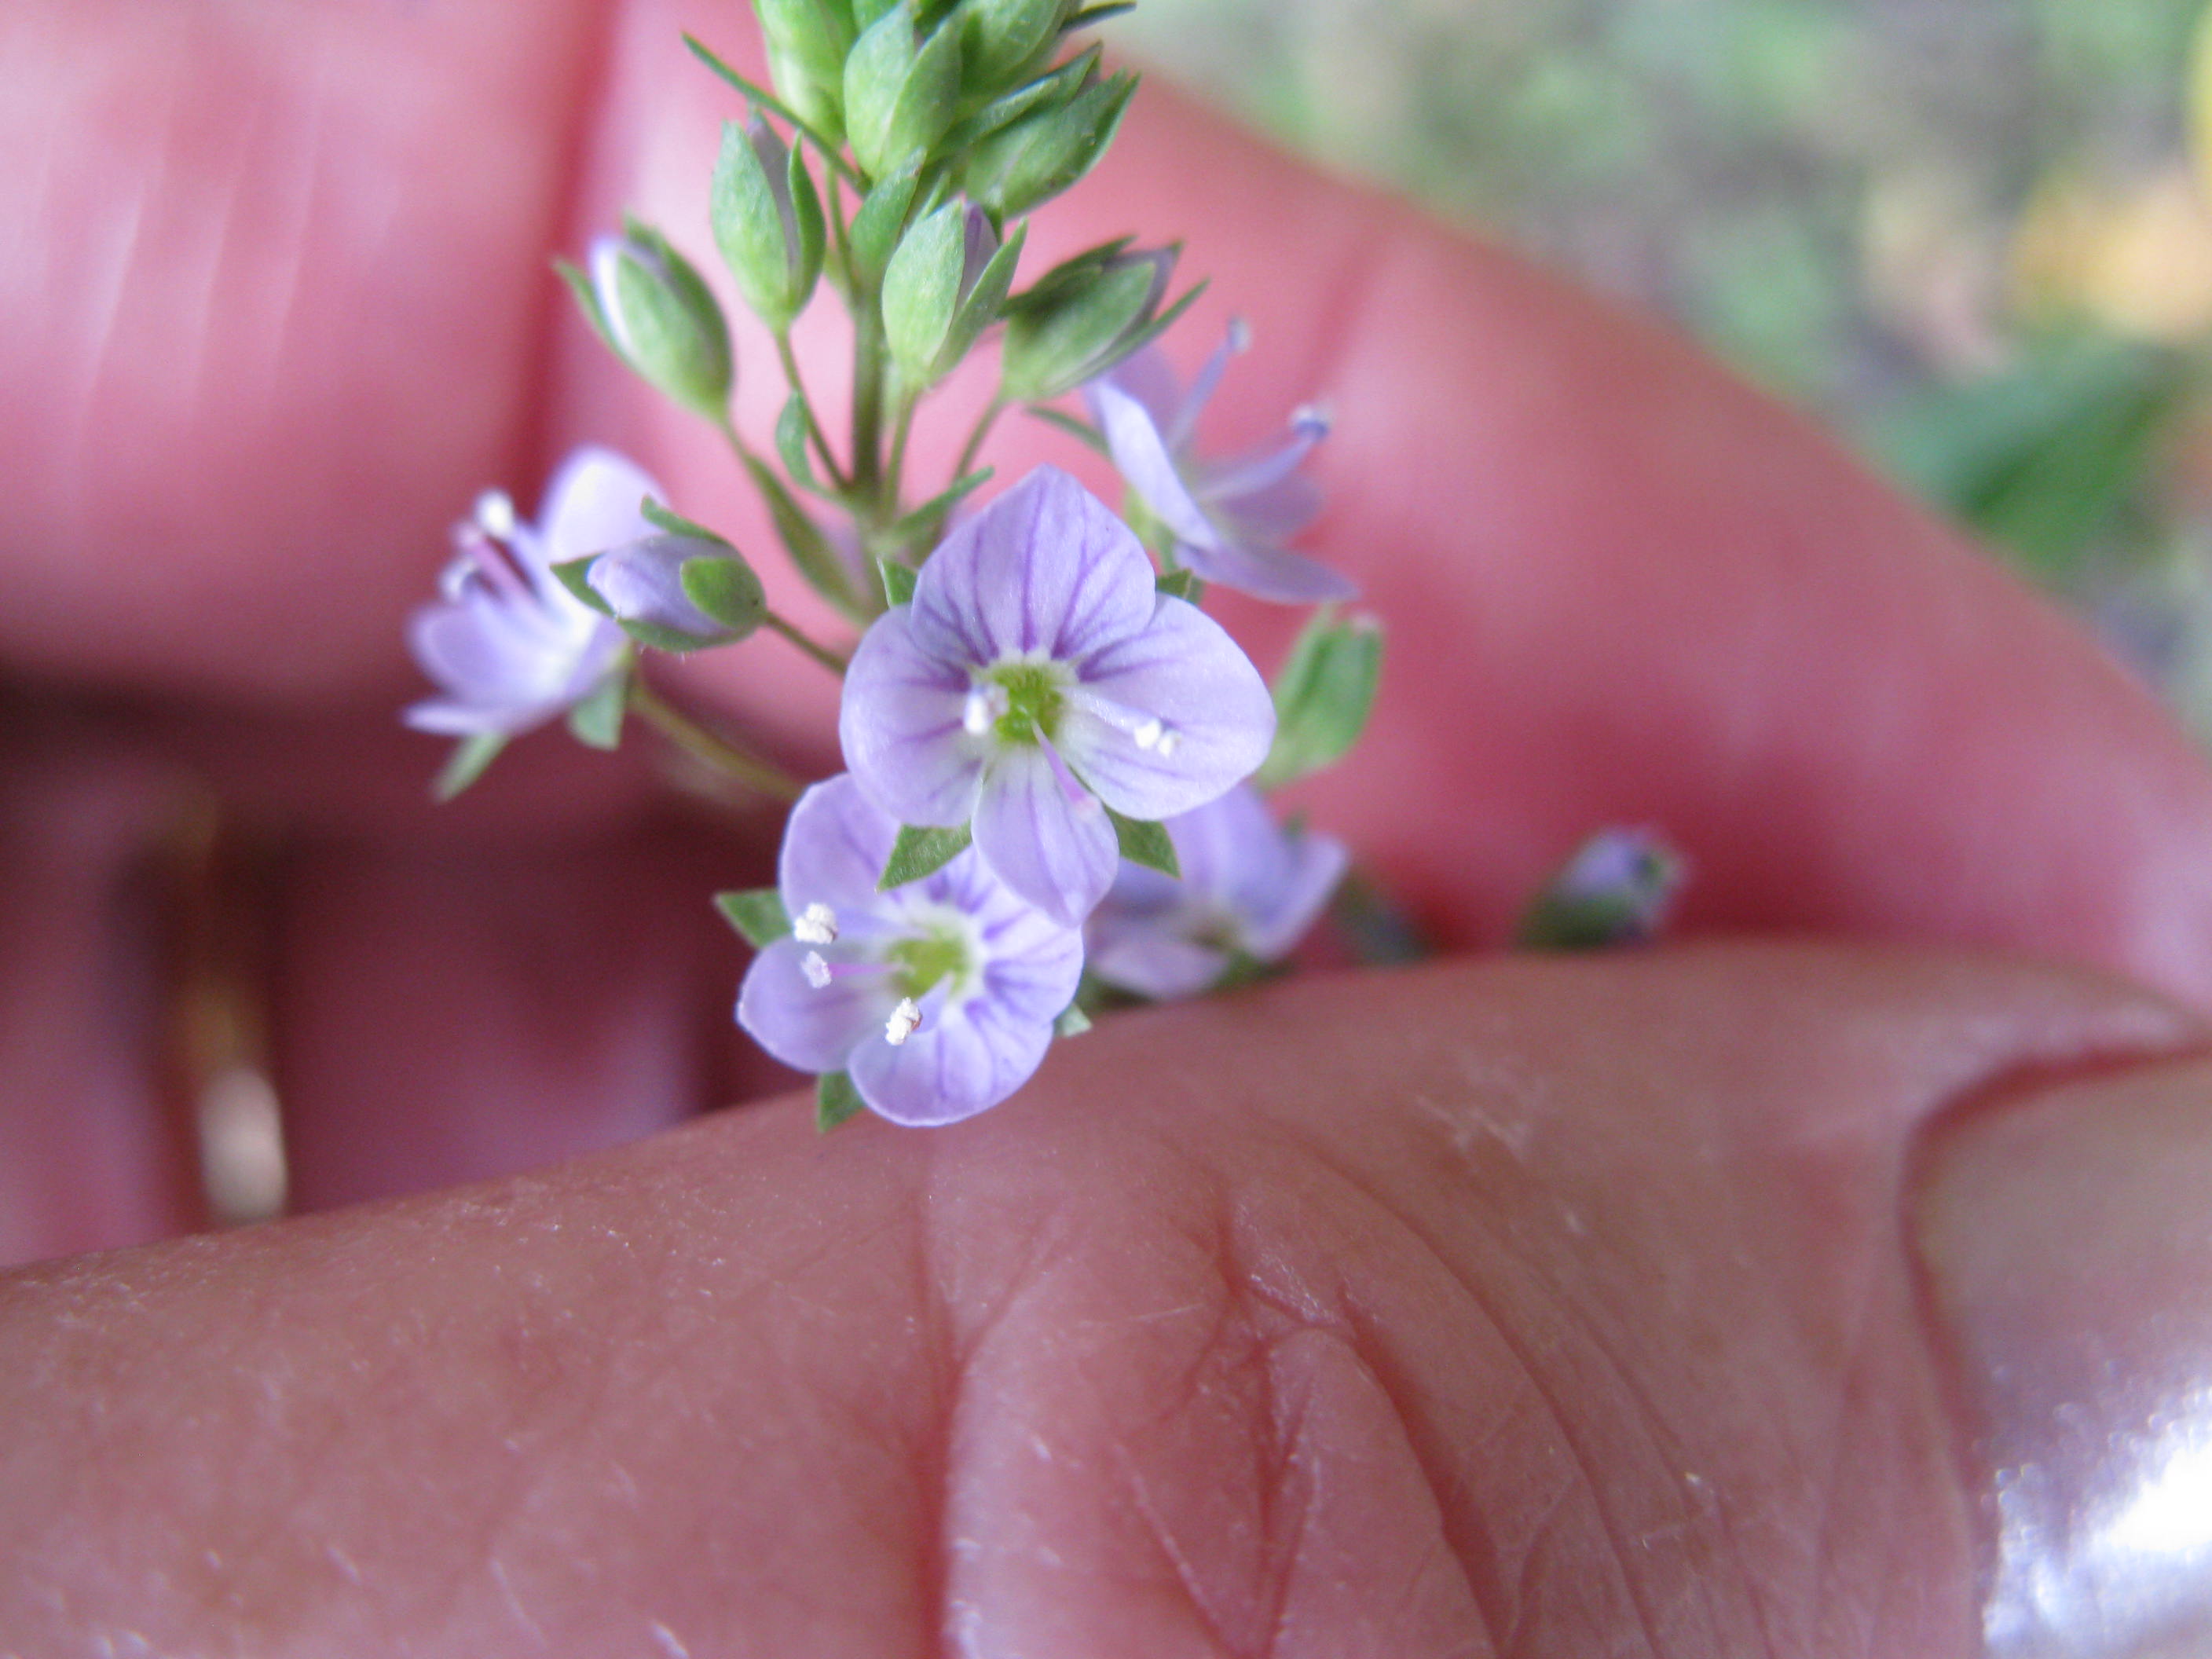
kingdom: Plantae
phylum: Tracheophyta
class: Magnoliopsida
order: Lamiales
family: Plantaginaceae
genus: Veronica
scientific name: Veronica anagallis-aquatica
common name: Water speedwell
